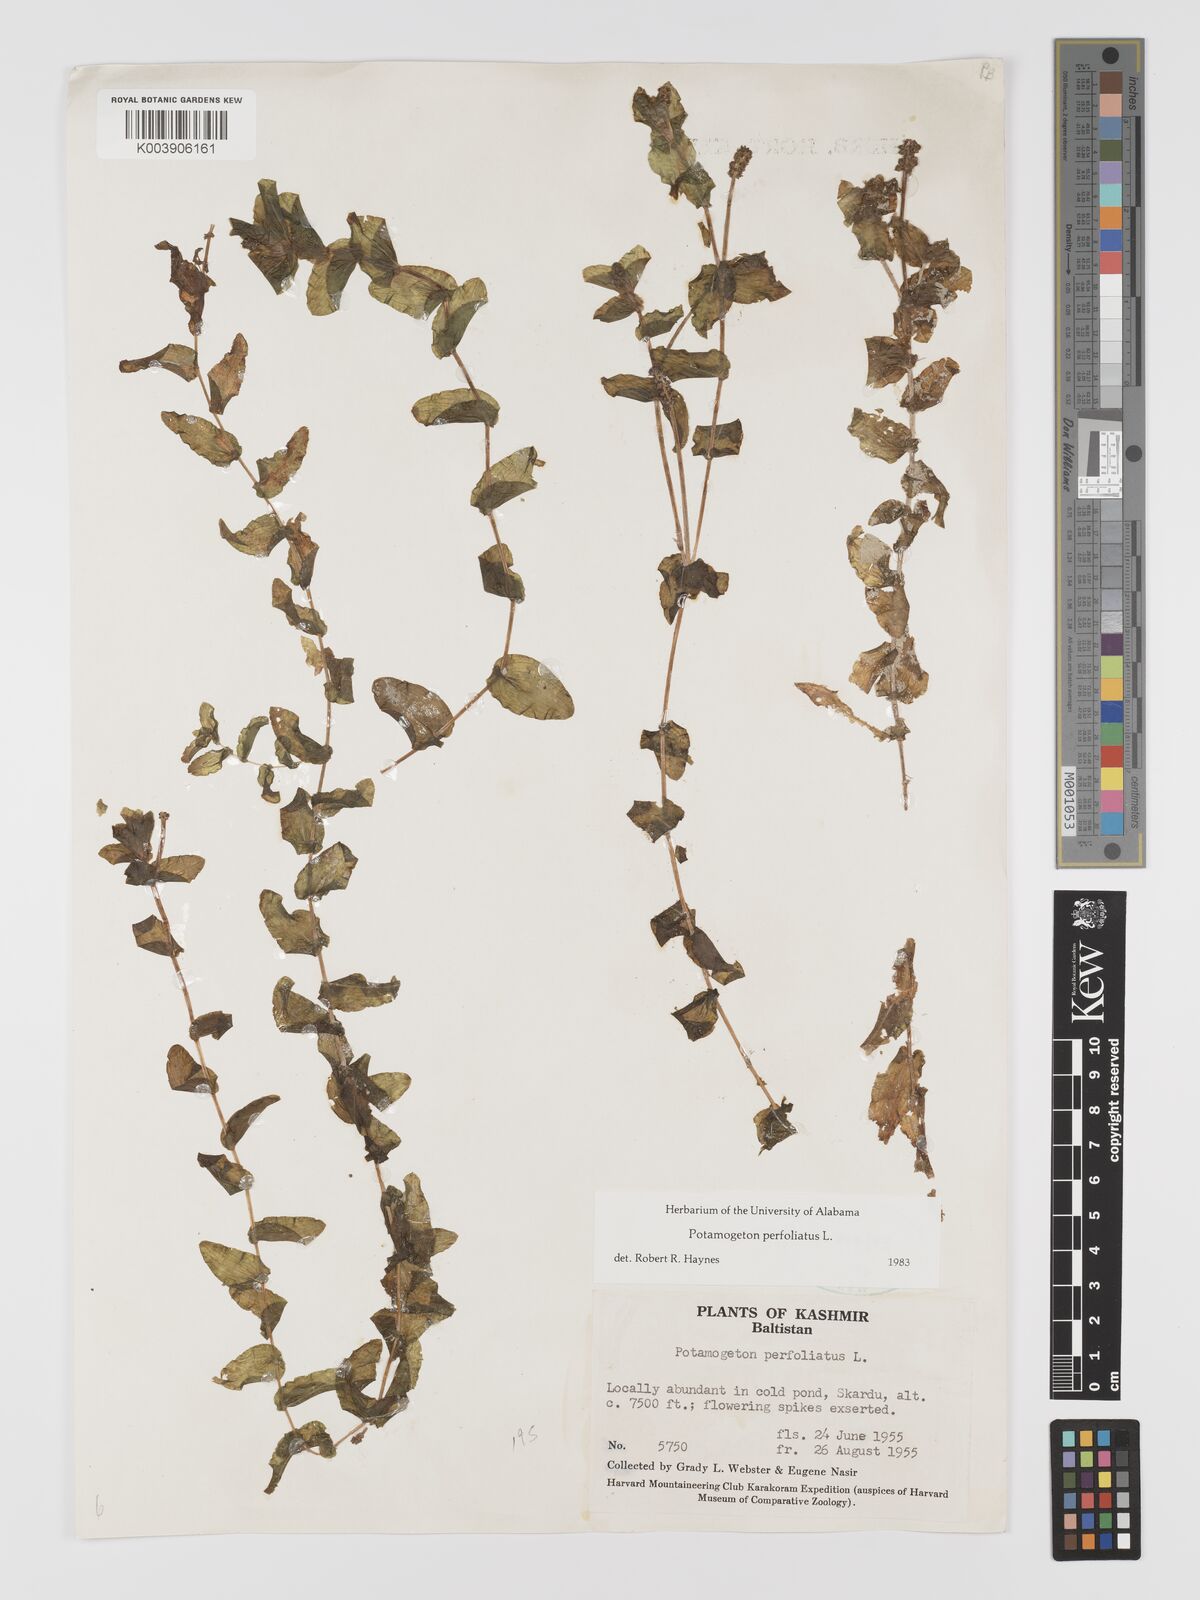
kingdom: Plantae
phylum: Tracheophyta
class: Liliopsida
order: Alismatales
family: Potamogetonaceae
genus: Stuckenia
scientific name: Stuckenia pectinata
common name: Sago pondweed
